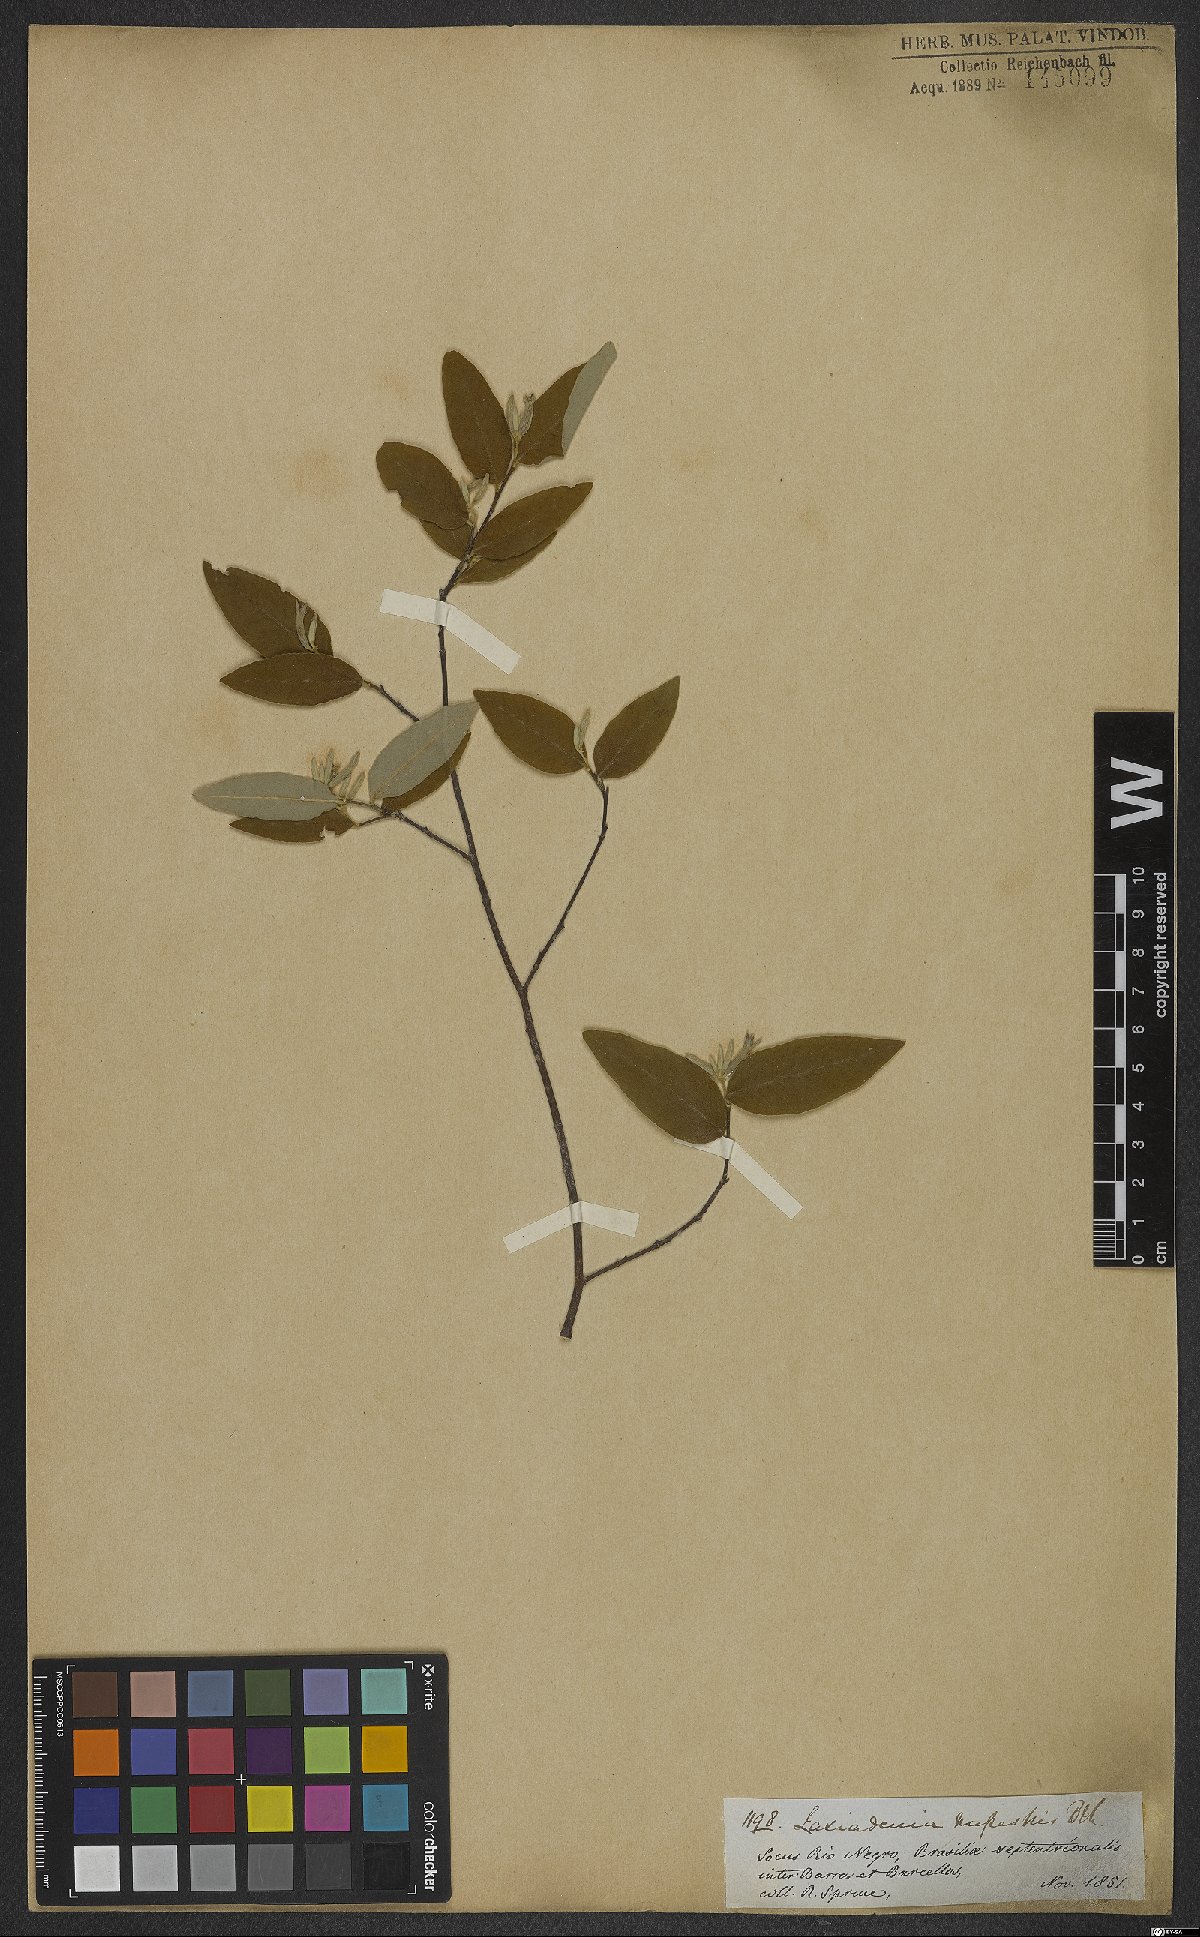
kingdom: Plantae
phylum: Tracheophyta
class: Magnoliopsida
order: Malvales
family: Thymelaeaceae
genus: Lasiadenia
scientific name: Lasiadenia rupestris
